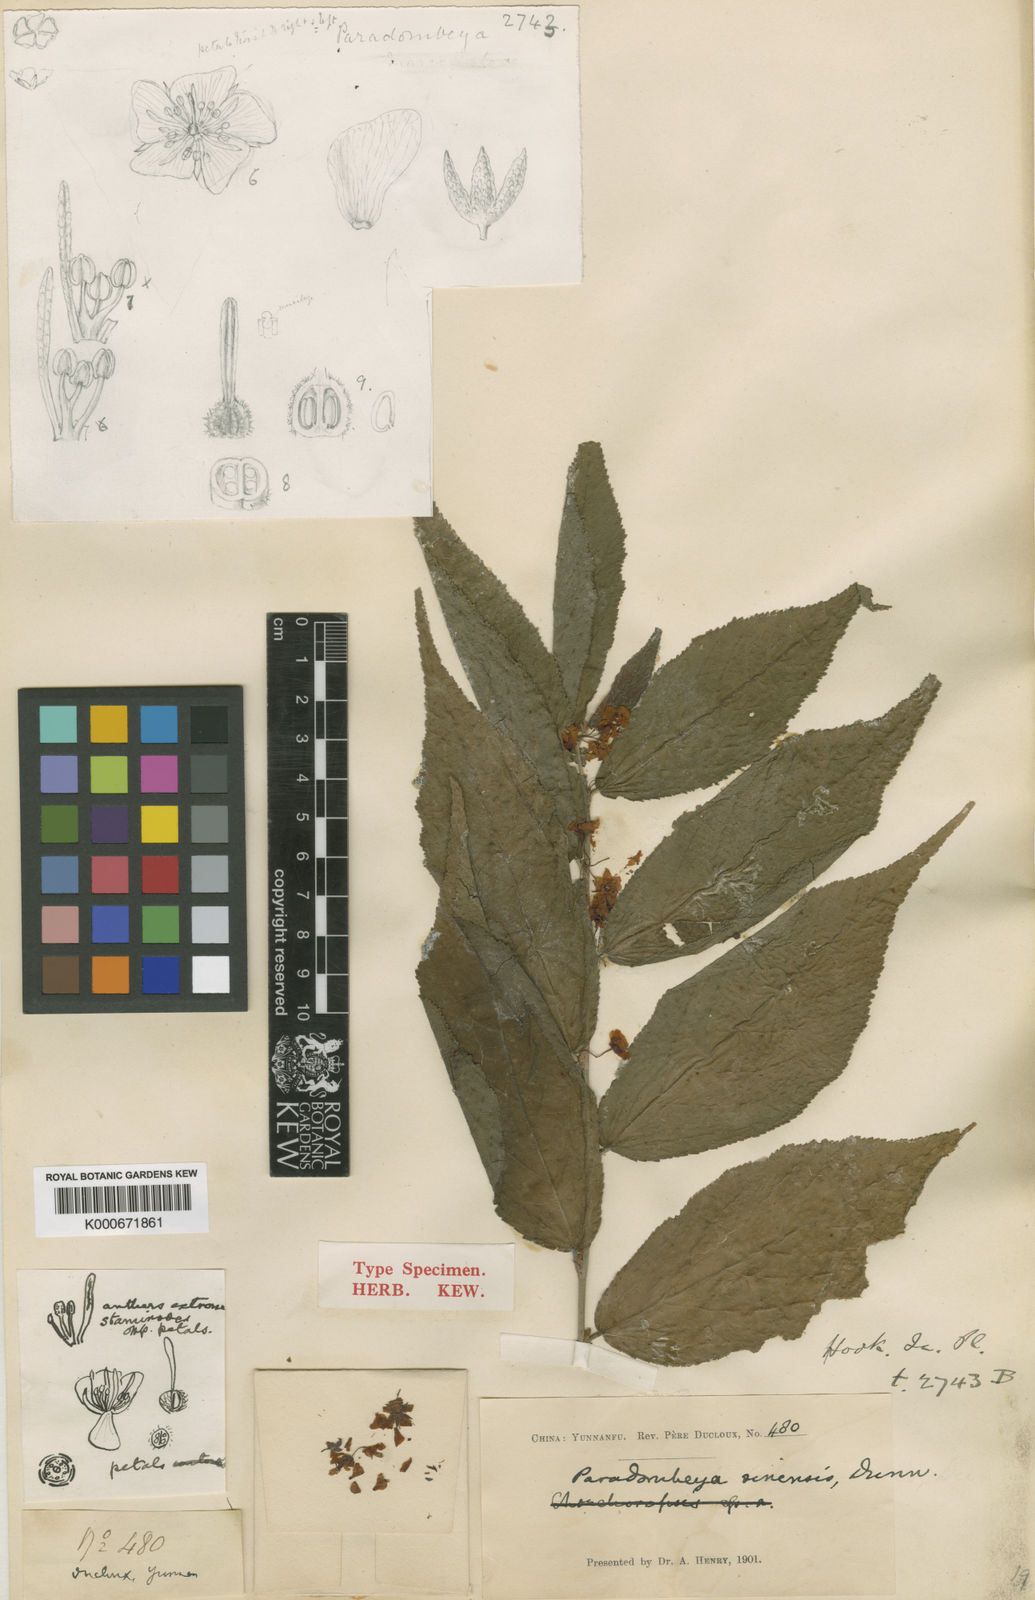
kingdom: Plantae
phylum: Tracheophyta
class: Magnoliopsida
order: Malvales
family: Malvaceae
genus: Corchoropsis
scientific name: Corchoropsis sinensis
